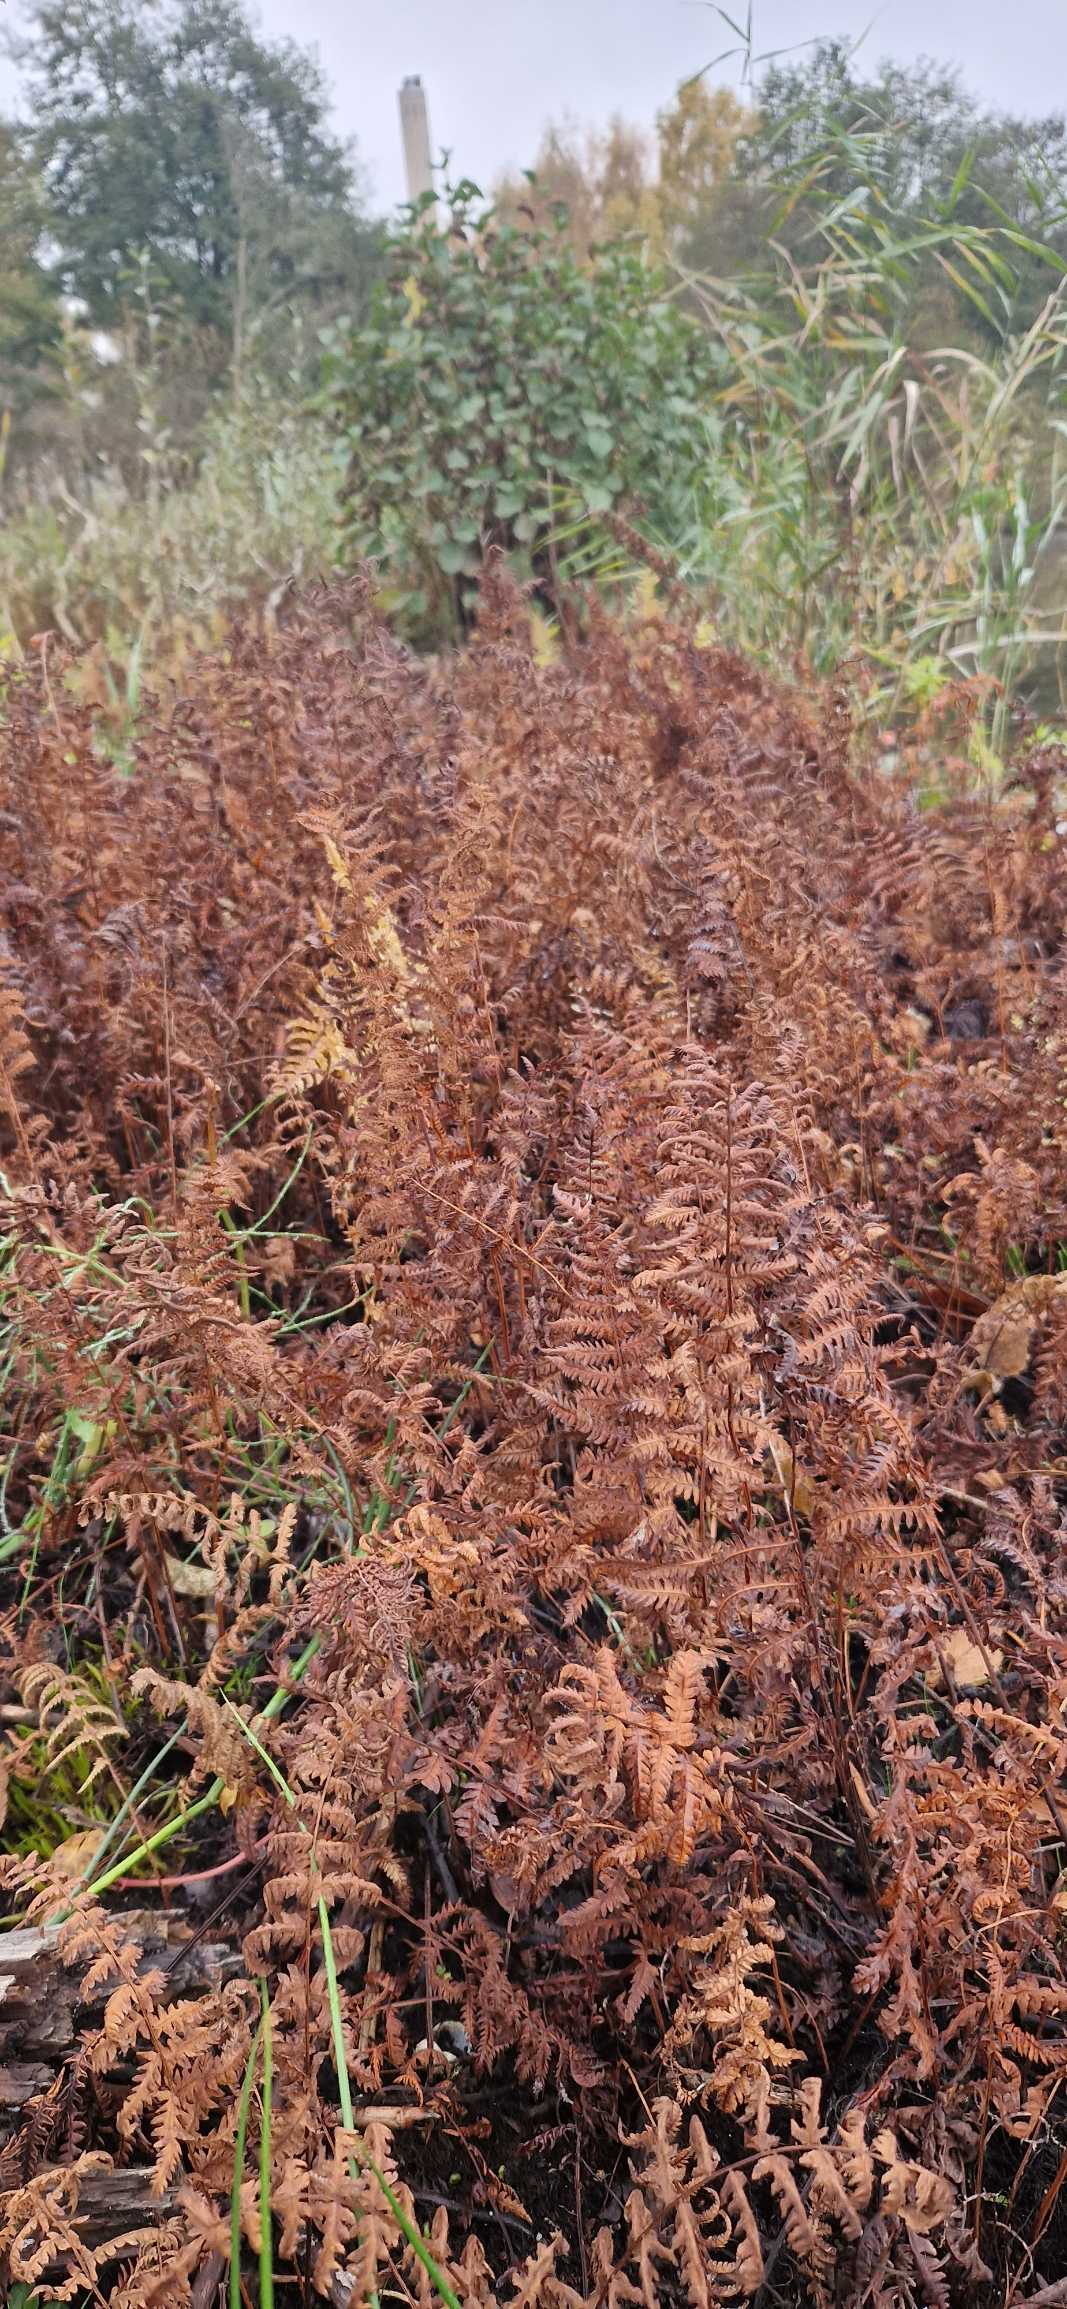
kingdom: Plantae
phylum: Tracheophyta
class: Polypodiopsida
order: Polypodiales
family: Thelypteridaceae
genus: Thelypteris
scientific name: Thelypteris palustris
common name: Kærmangeløv
